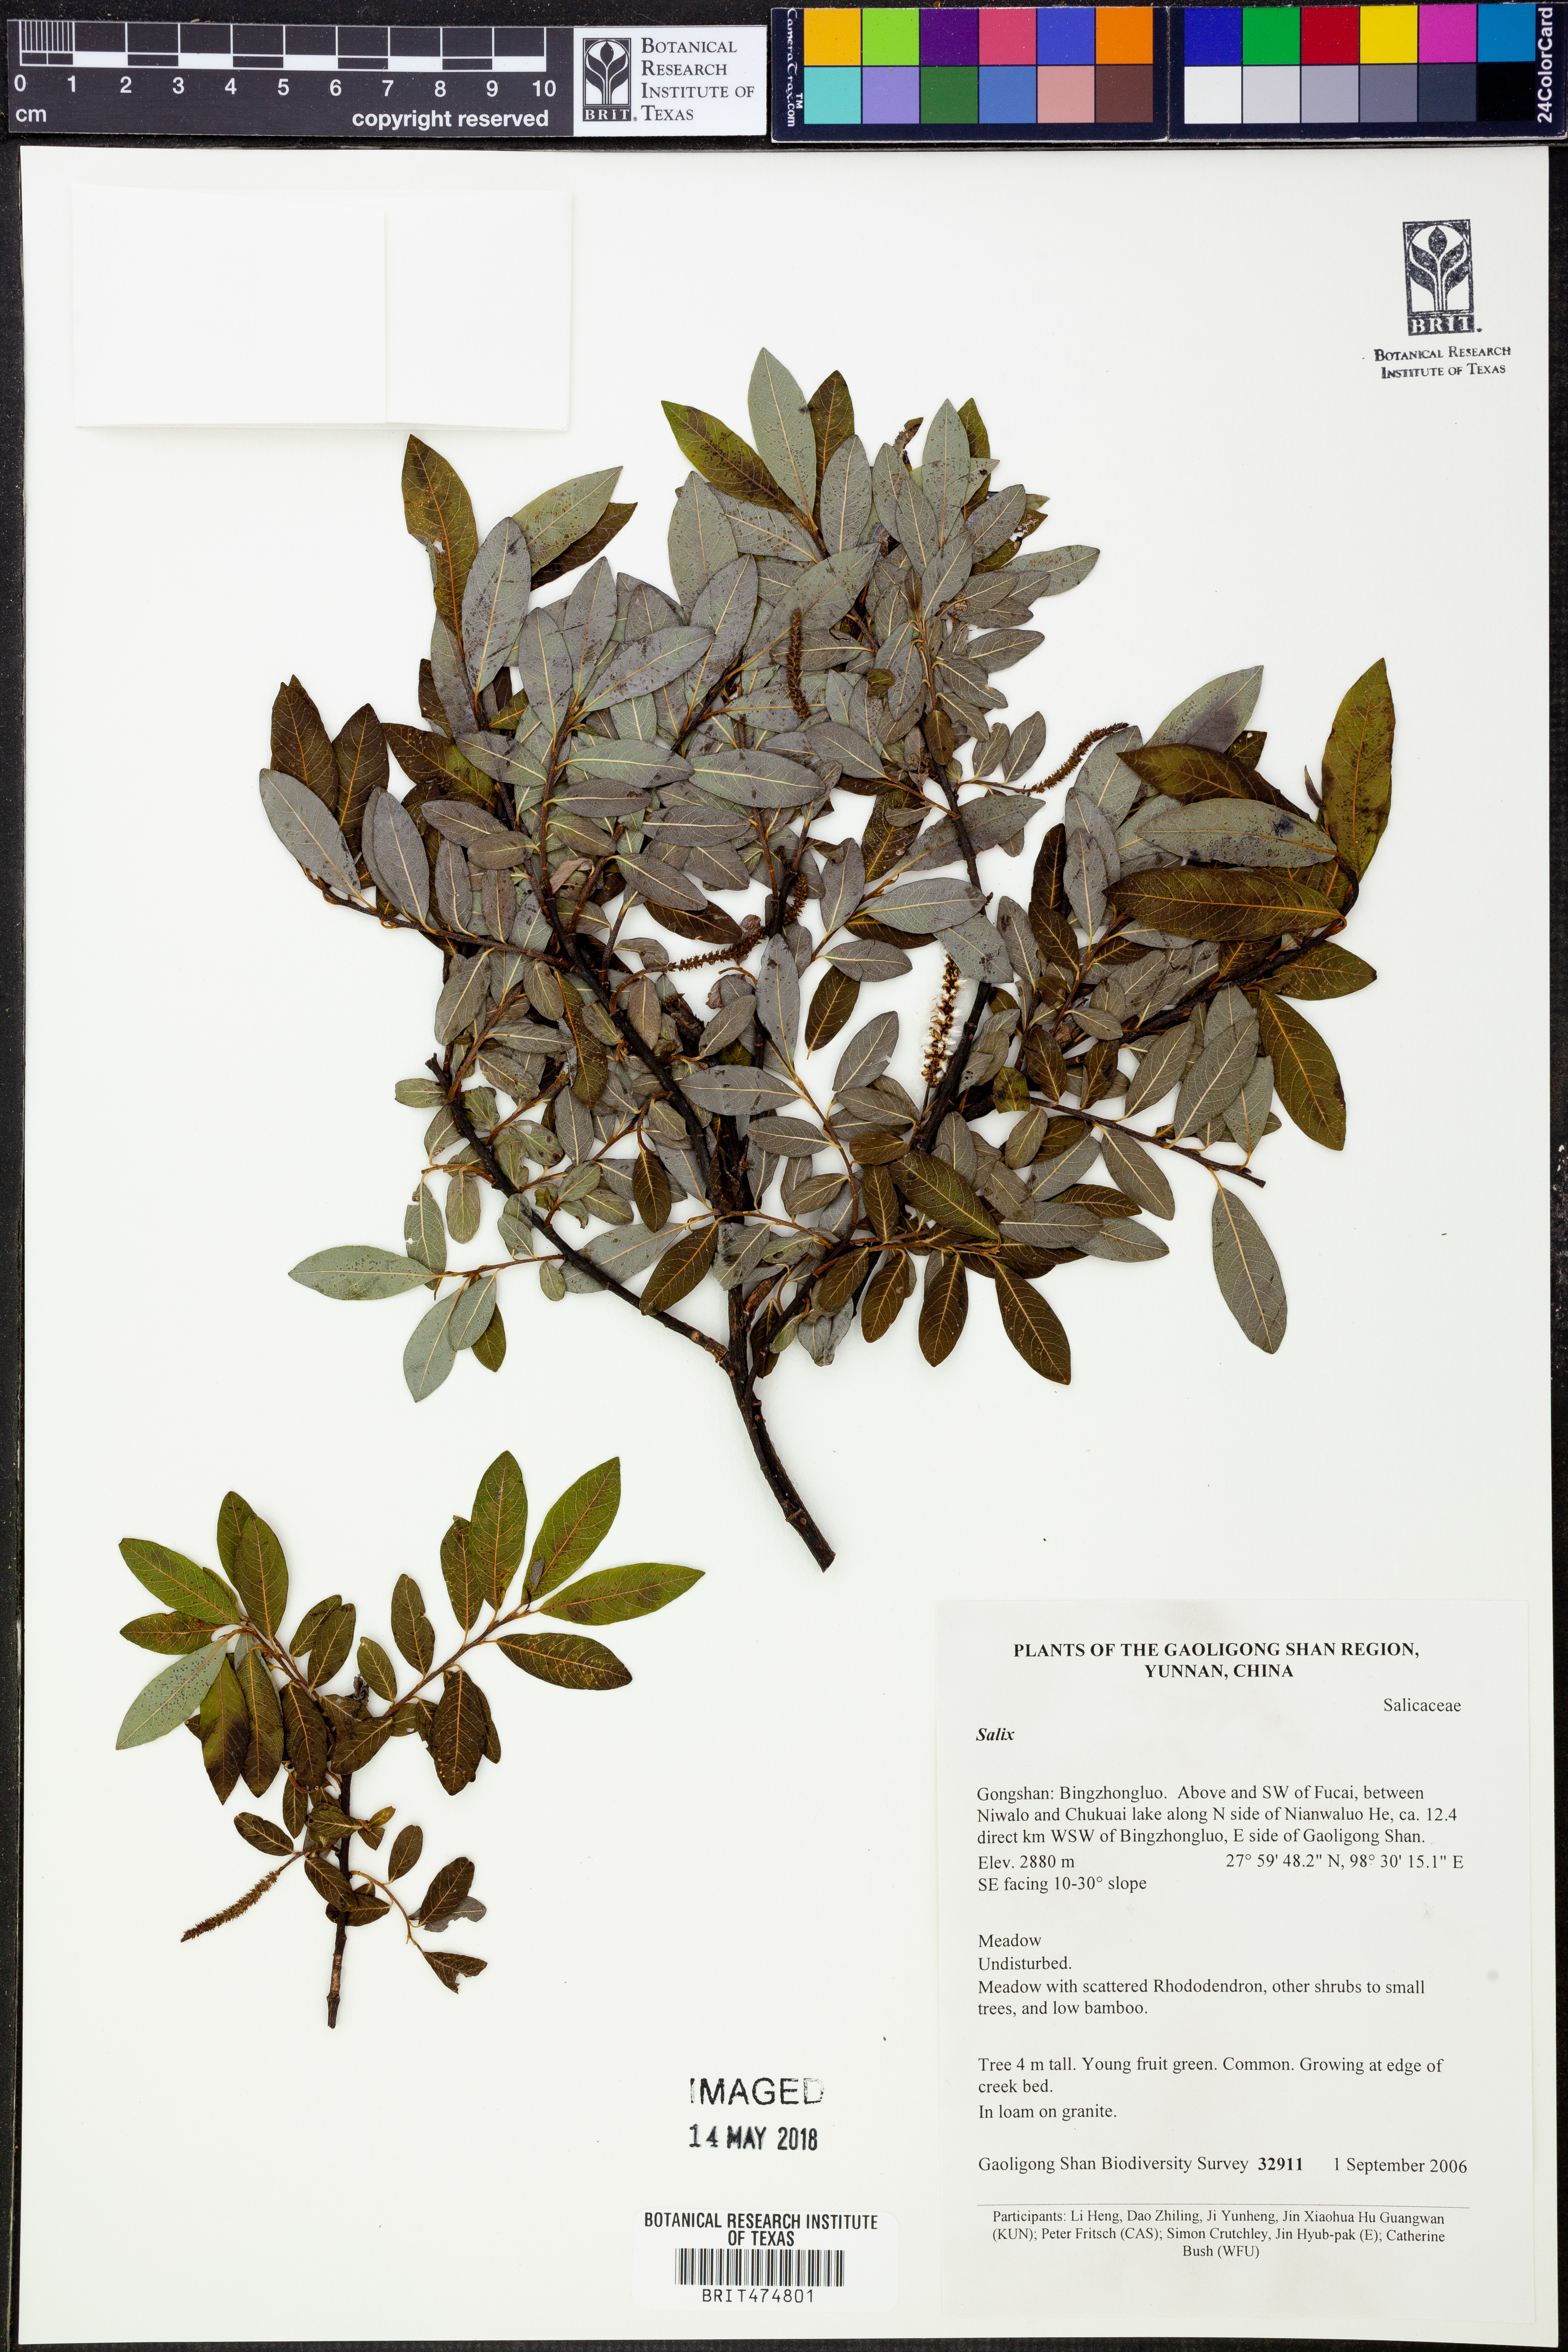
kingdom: Plantae
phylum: Tracheophyta
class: Magnoliopsida
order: Malpighiales
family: Salicaceae
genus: Salix
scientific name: Salix
